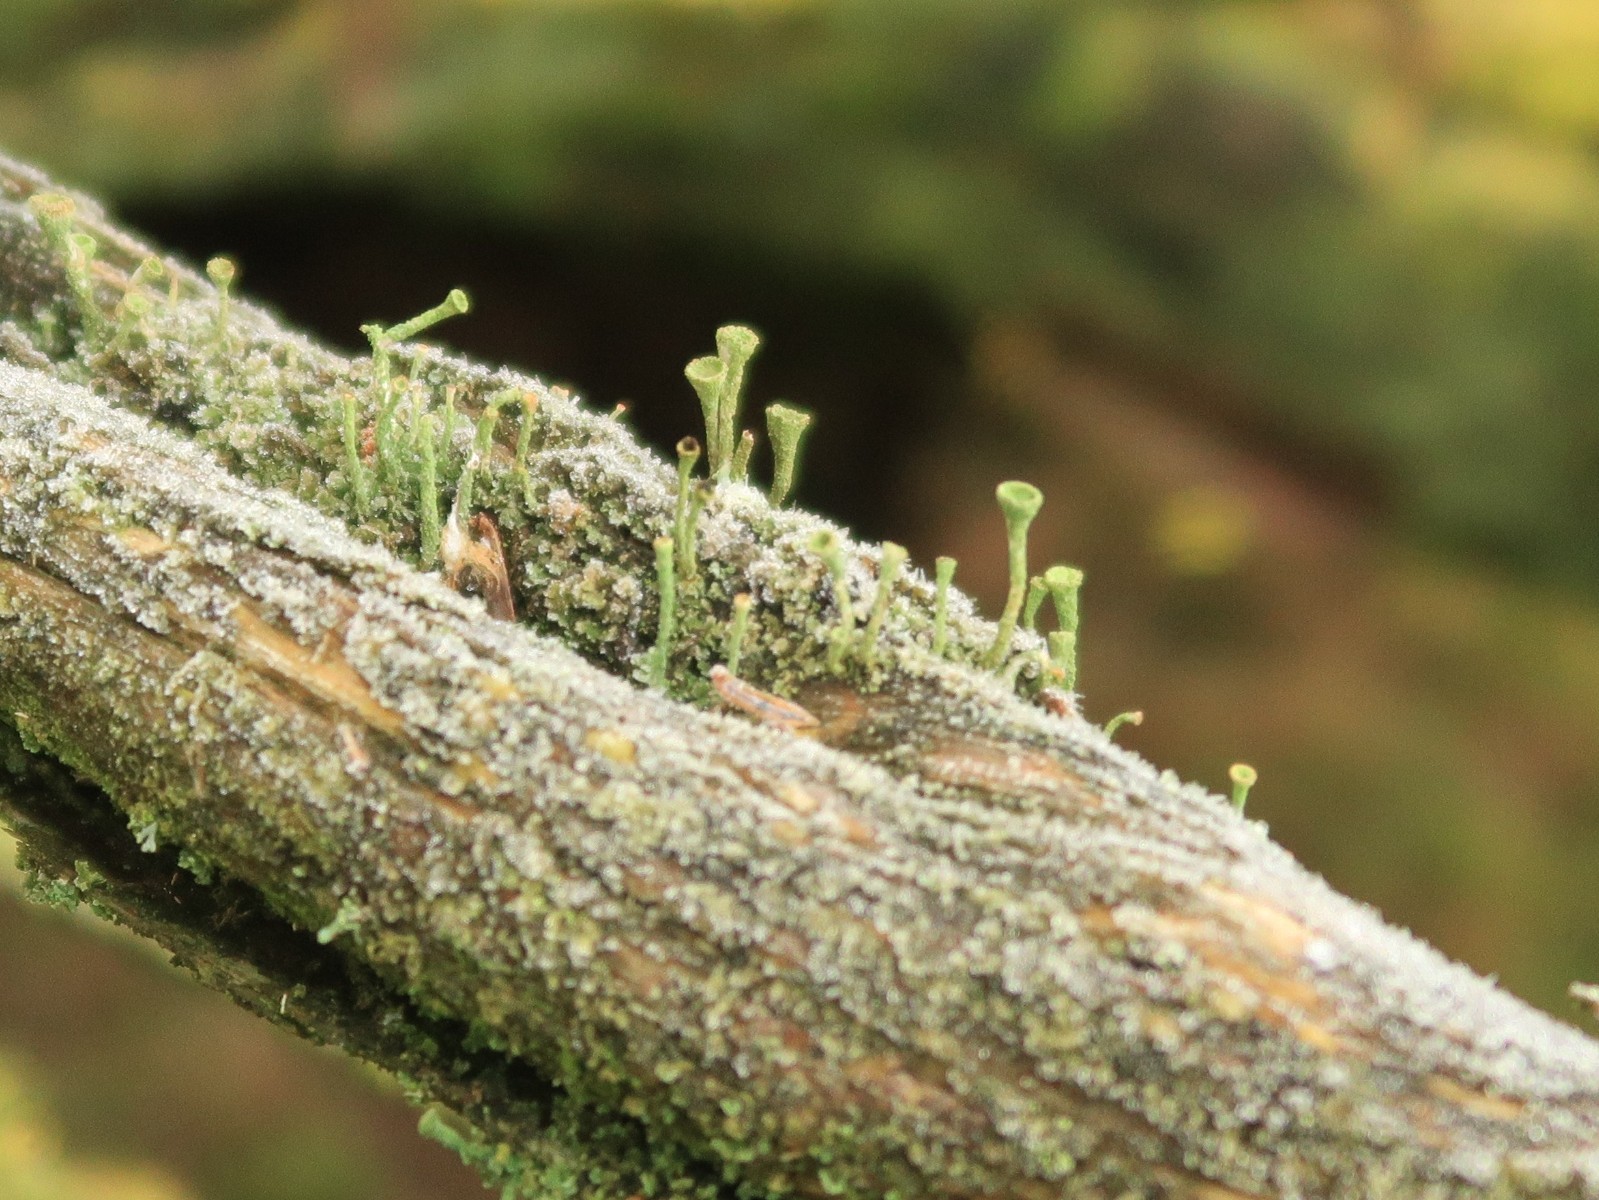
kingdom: Fungi
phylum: Ascomycota
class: Lecanoromycetes
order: Lecanorales
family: Cladoniaceae
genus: Cladonia
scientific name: Cladonia fimbriata
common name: bleggrøn bægerlav
